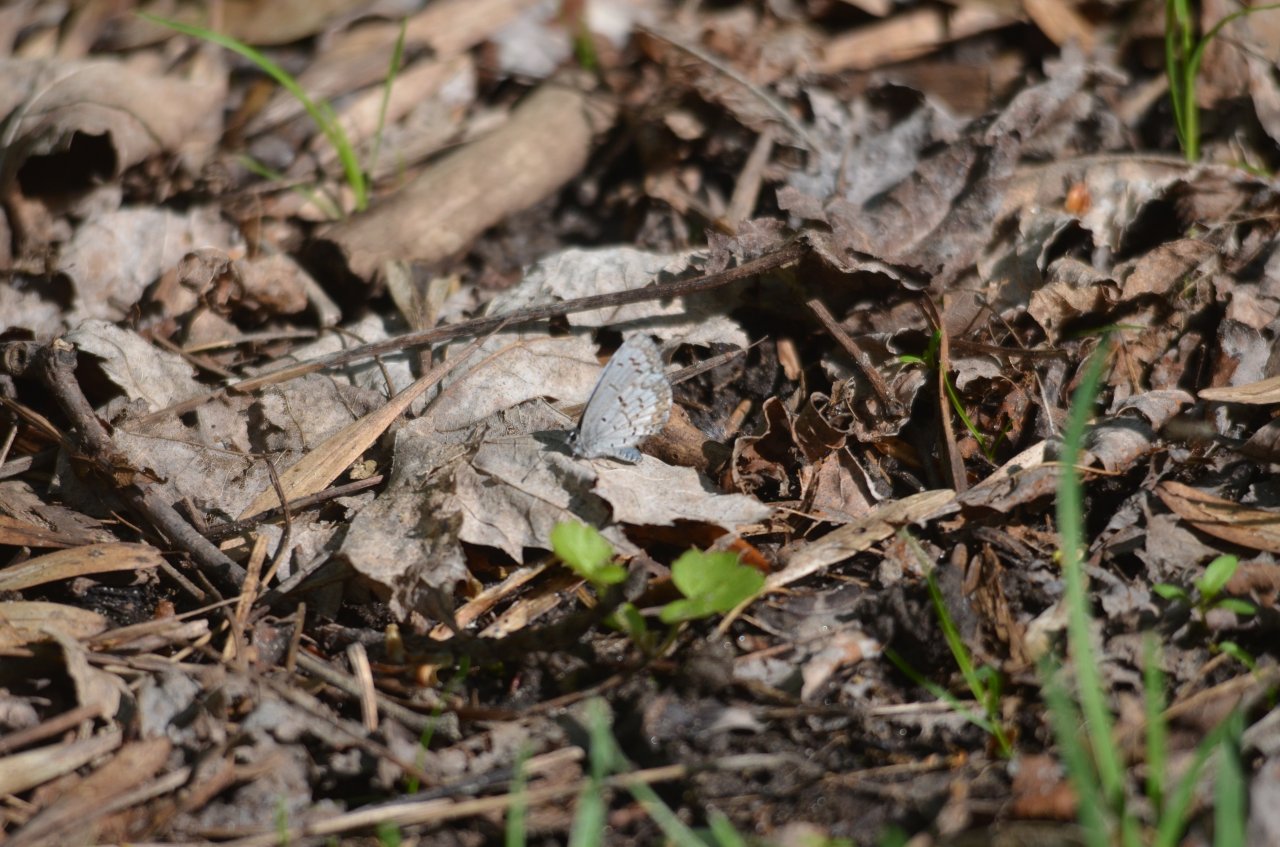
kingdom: Animalia
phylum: Arthropoda
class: Insecta
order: Lepidoptera
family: Lycaenidae
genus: Celastrina
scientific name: Celastrina
